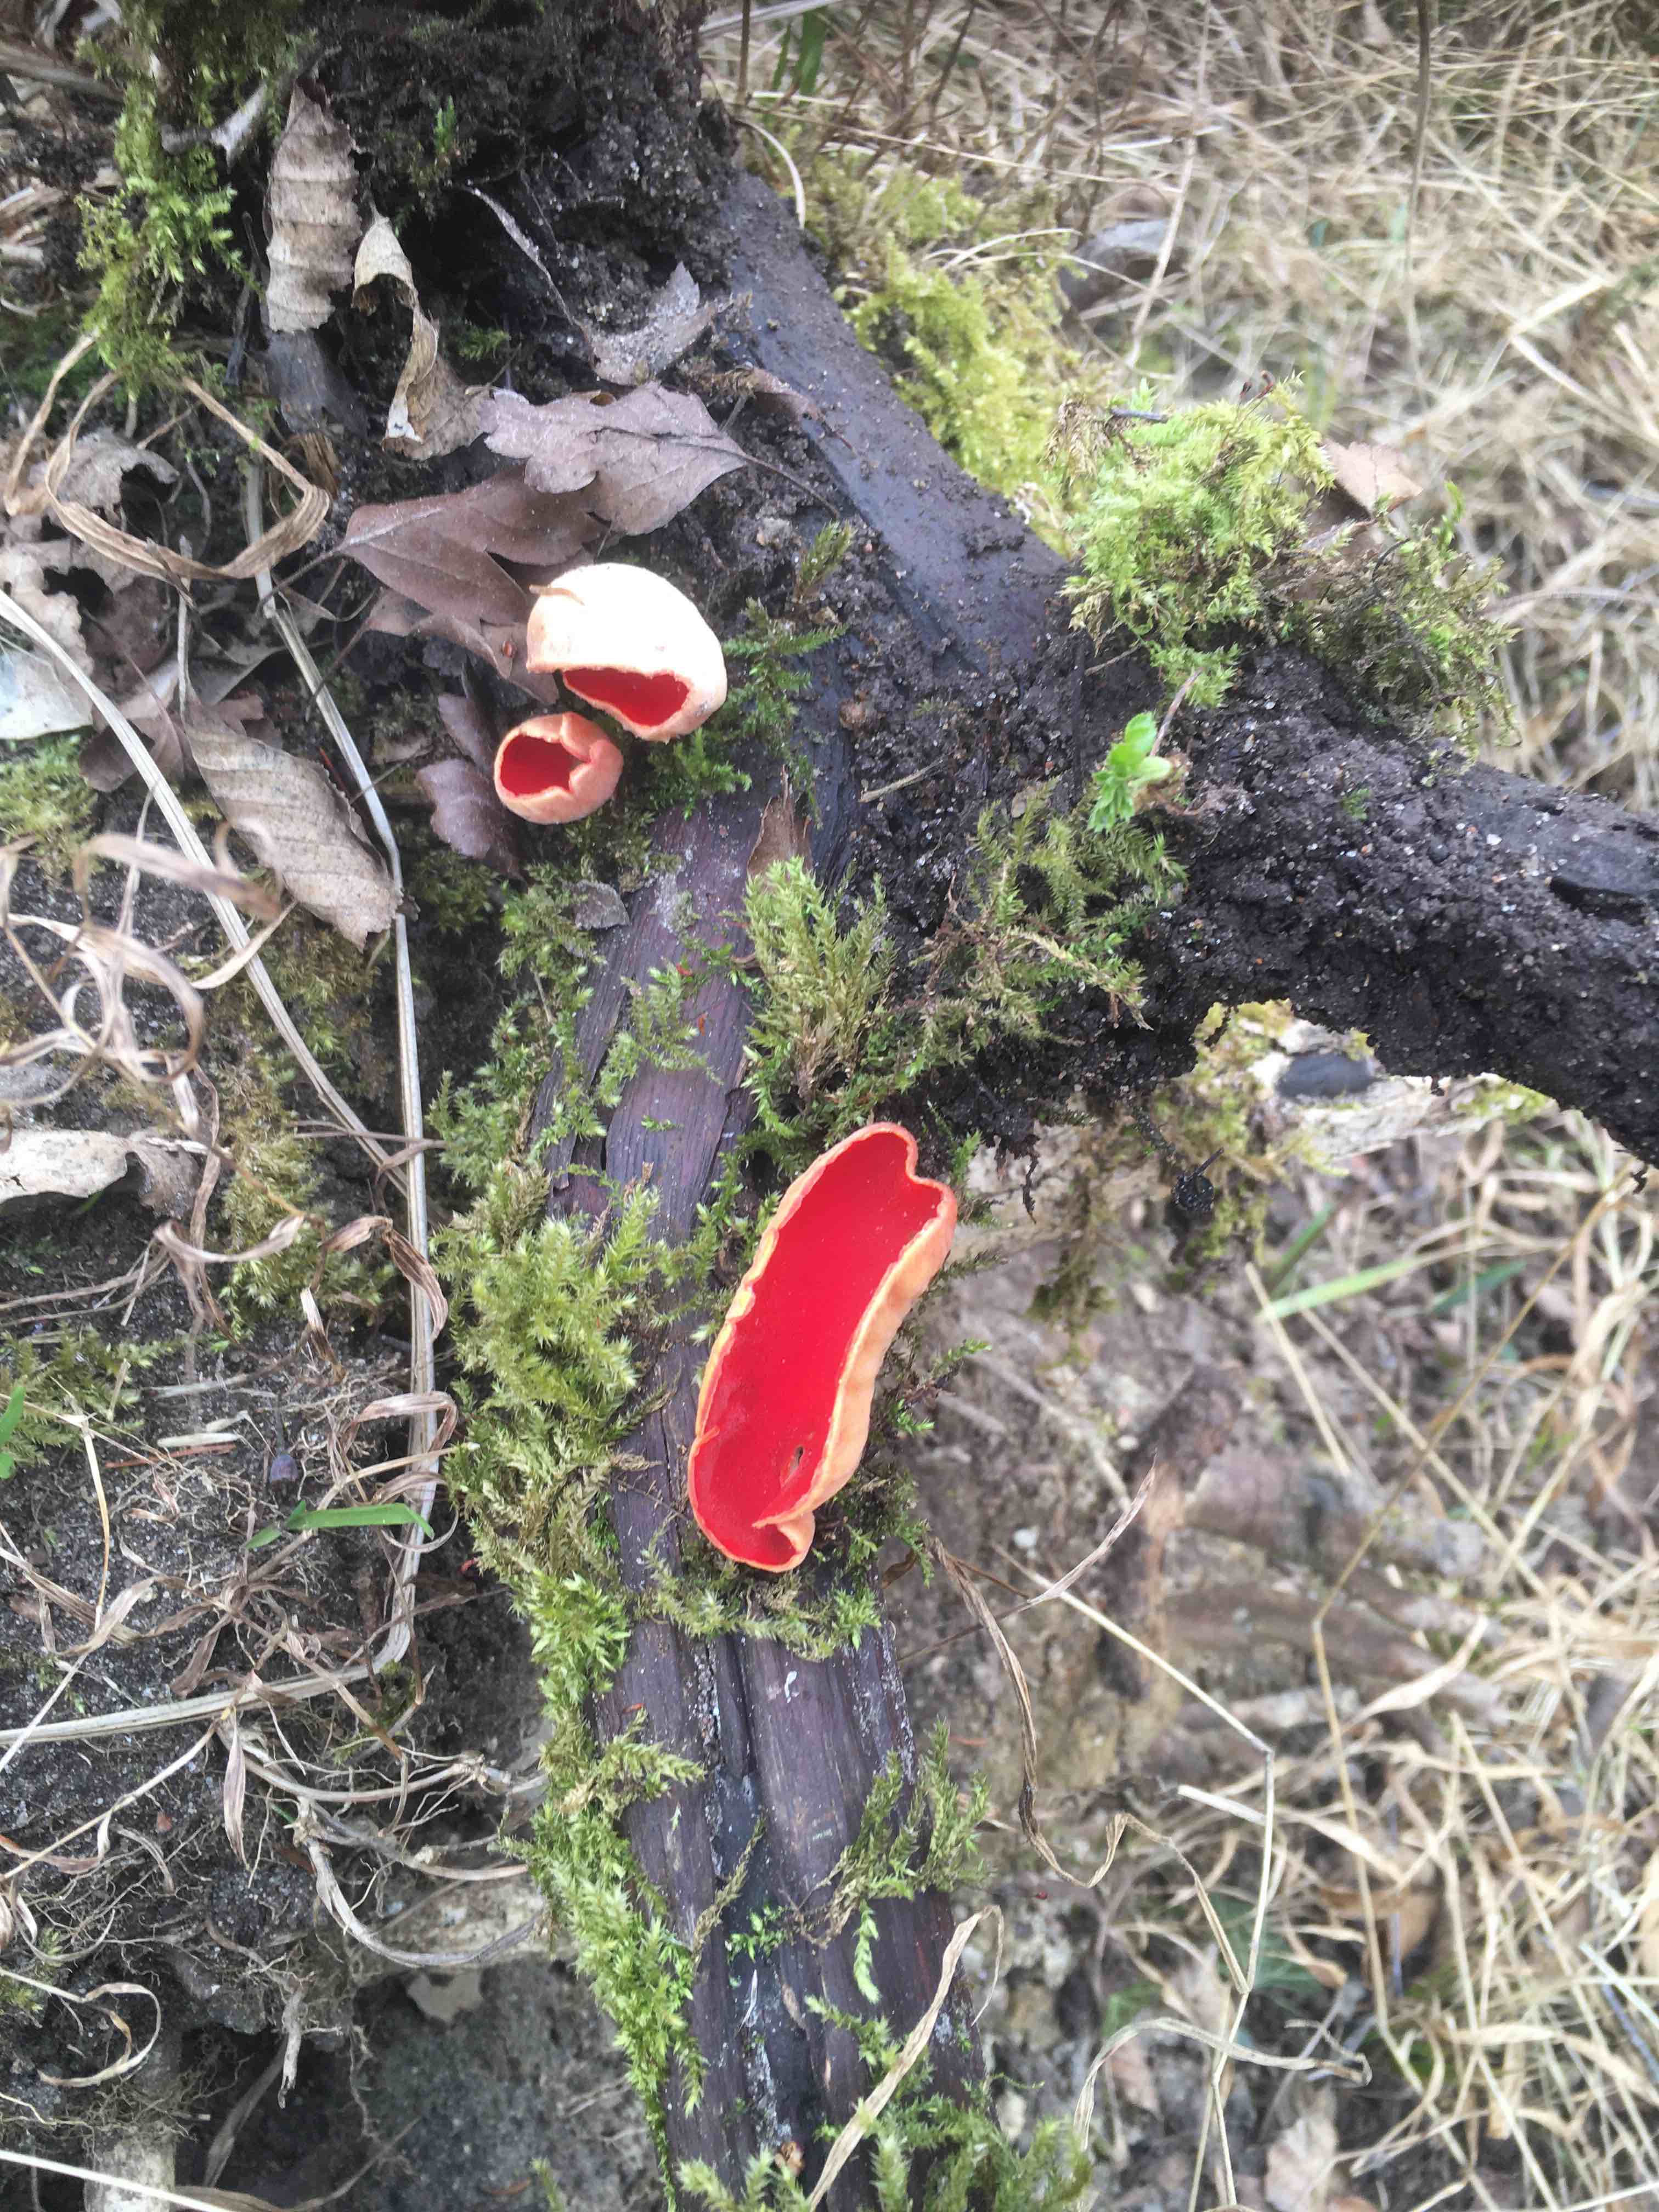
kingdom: Fungi
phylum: Ascomycota
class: Pezizomycetes
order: Pezizales
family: Sarcoscyphaceae
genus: Sarcoscypha
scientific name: Sarcoscypha austriaca
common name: krølhåret pragtbæger
